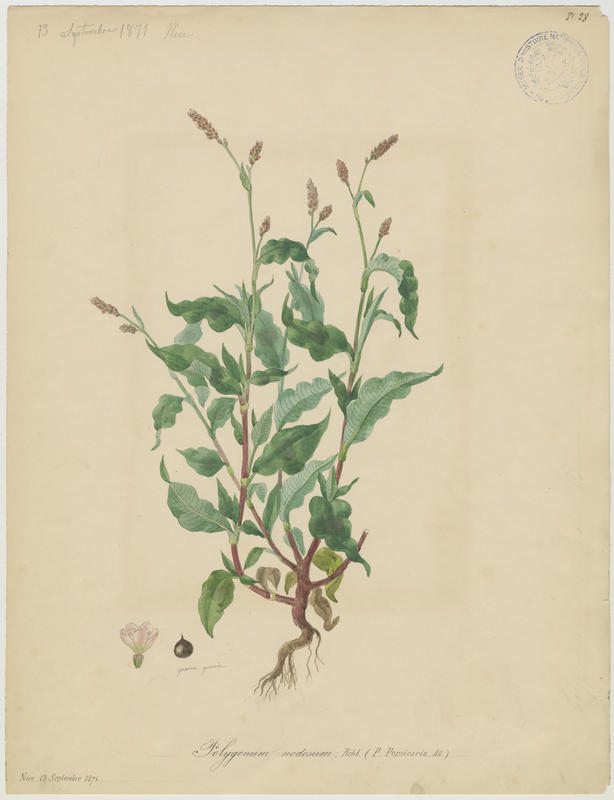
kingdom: Plantae
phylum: Tracheophyta
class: Magnoliopsida
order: Caryophyllales
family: Polygonaceae
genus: Persicaria
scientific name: Persicaria lapathifolia
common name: Curlytop knotweed
